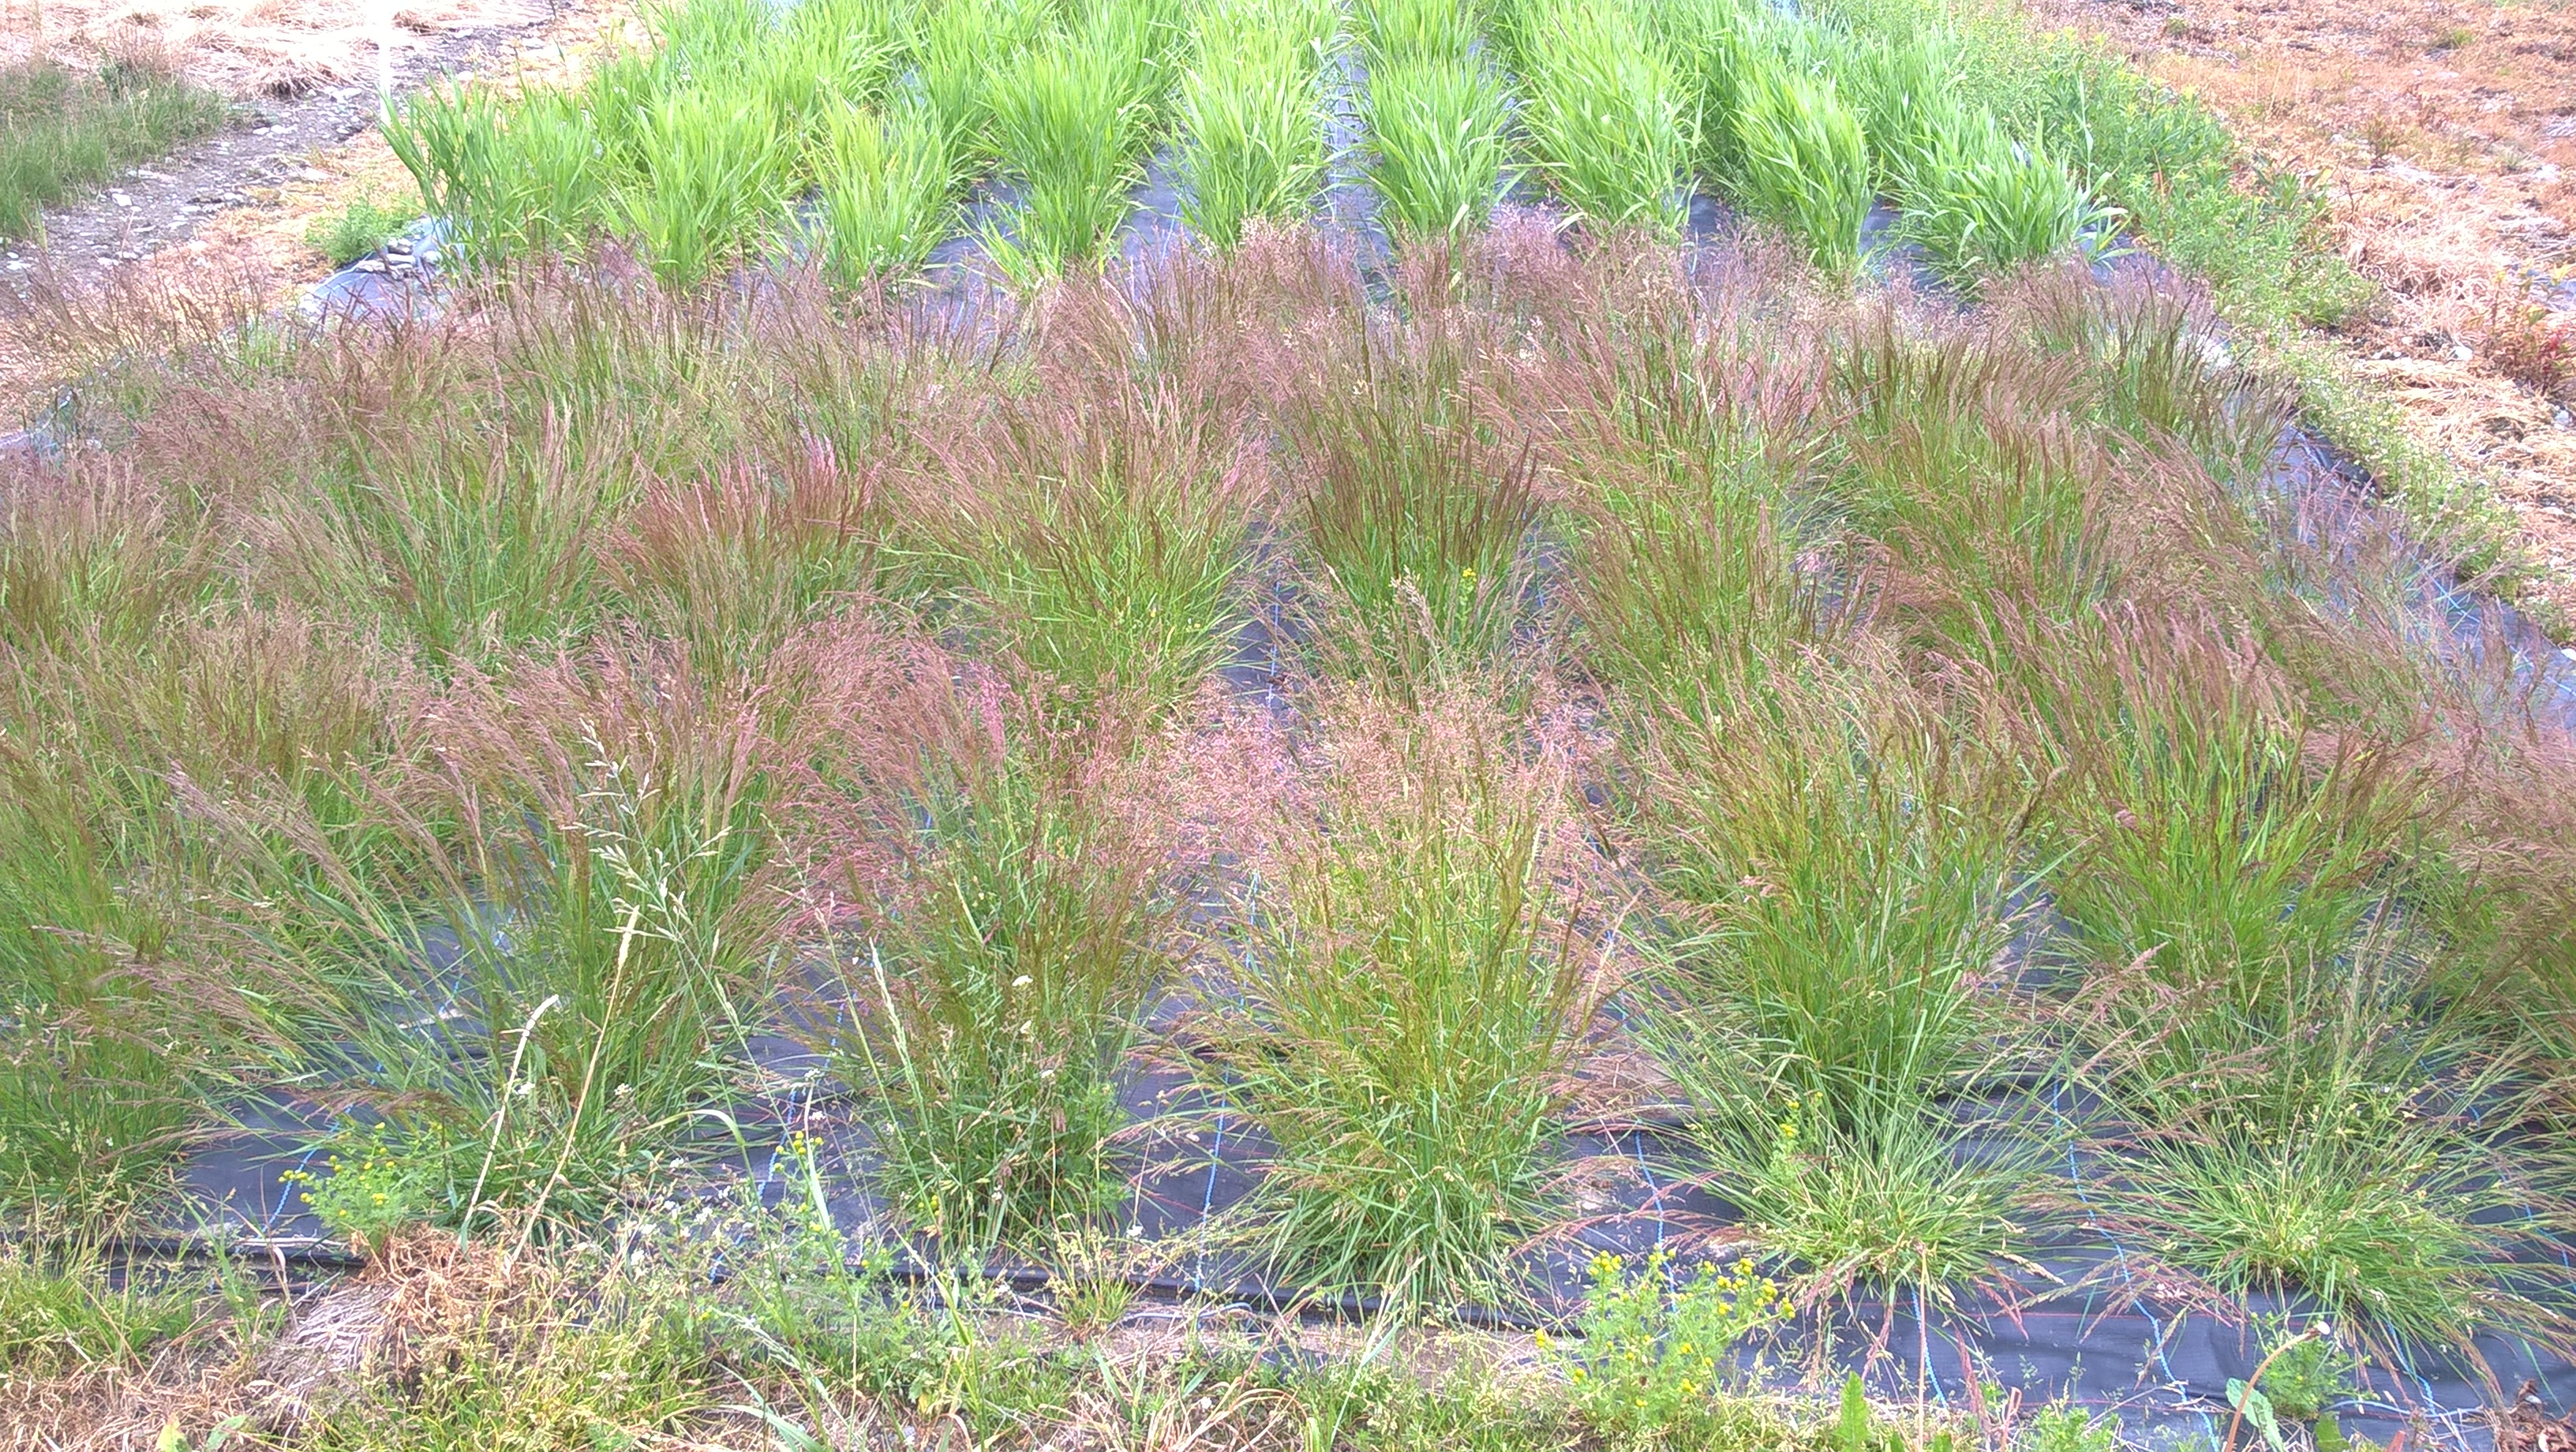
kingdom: Plantae
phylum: Tracheophyta
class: Liliopsida
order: Poales
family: Poaceae
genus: Agrostis
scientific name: Agrostis capillaris
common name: Colonial bentgrass
